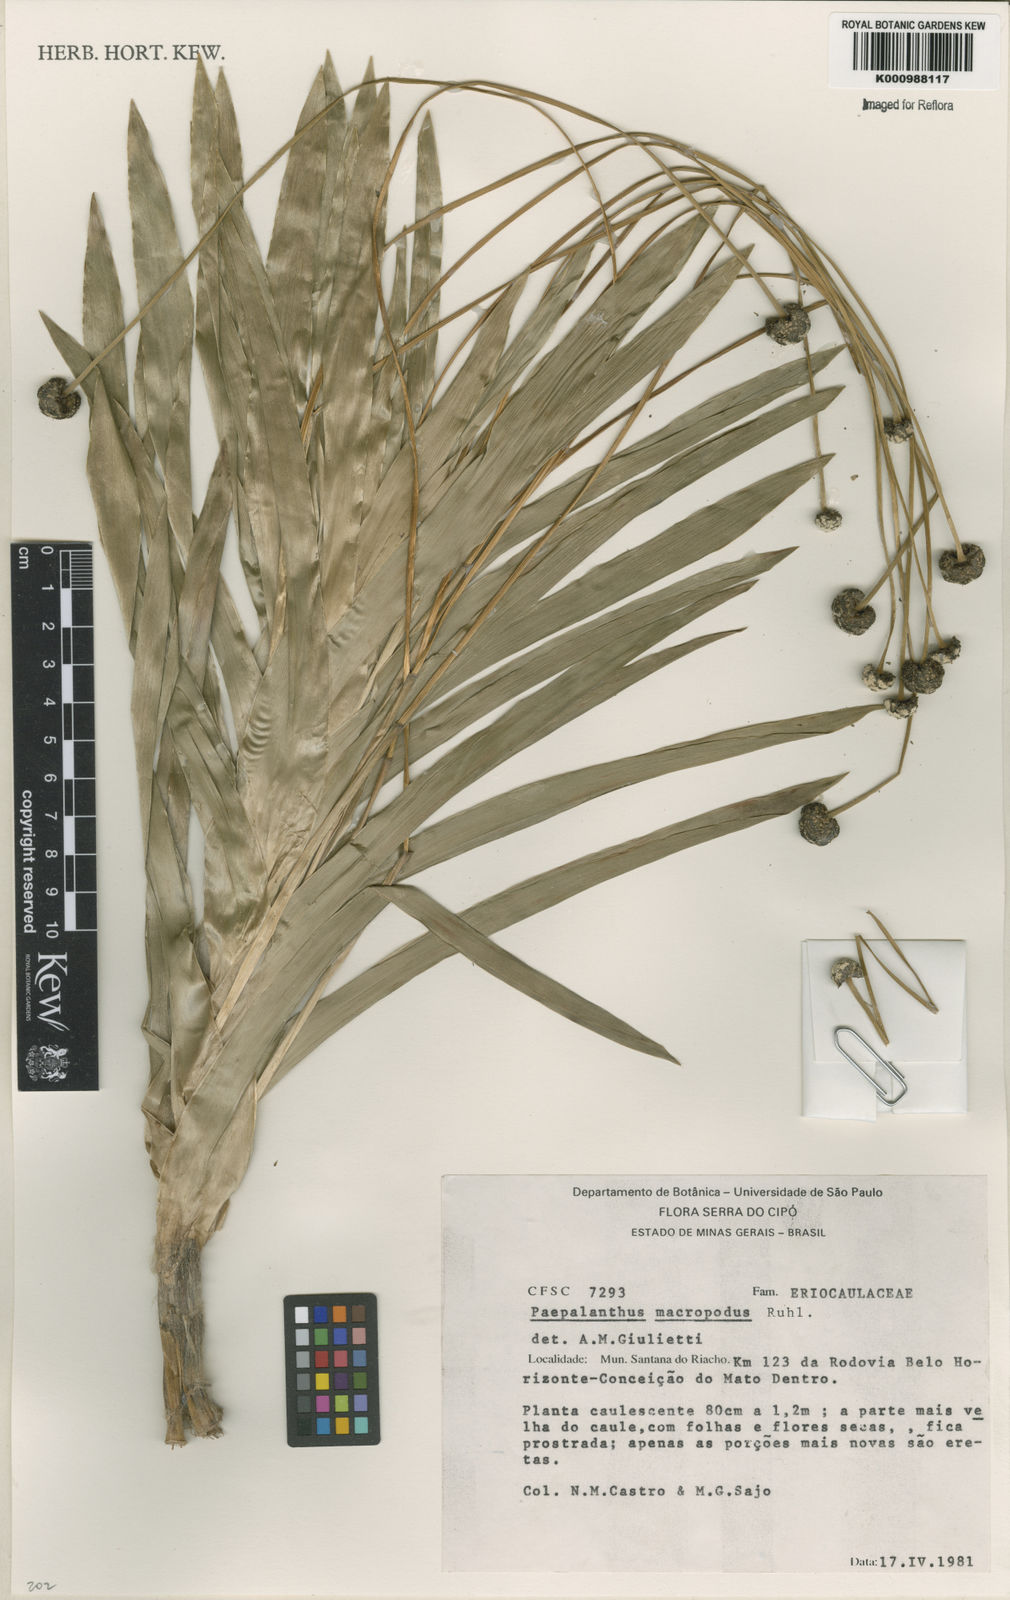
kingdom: Plantae
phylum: Tracheophyta
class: Liliopsida
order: Poales
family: Eriocaulaceae
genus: Paepalanthus
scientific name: Paepalanthus macropodus
